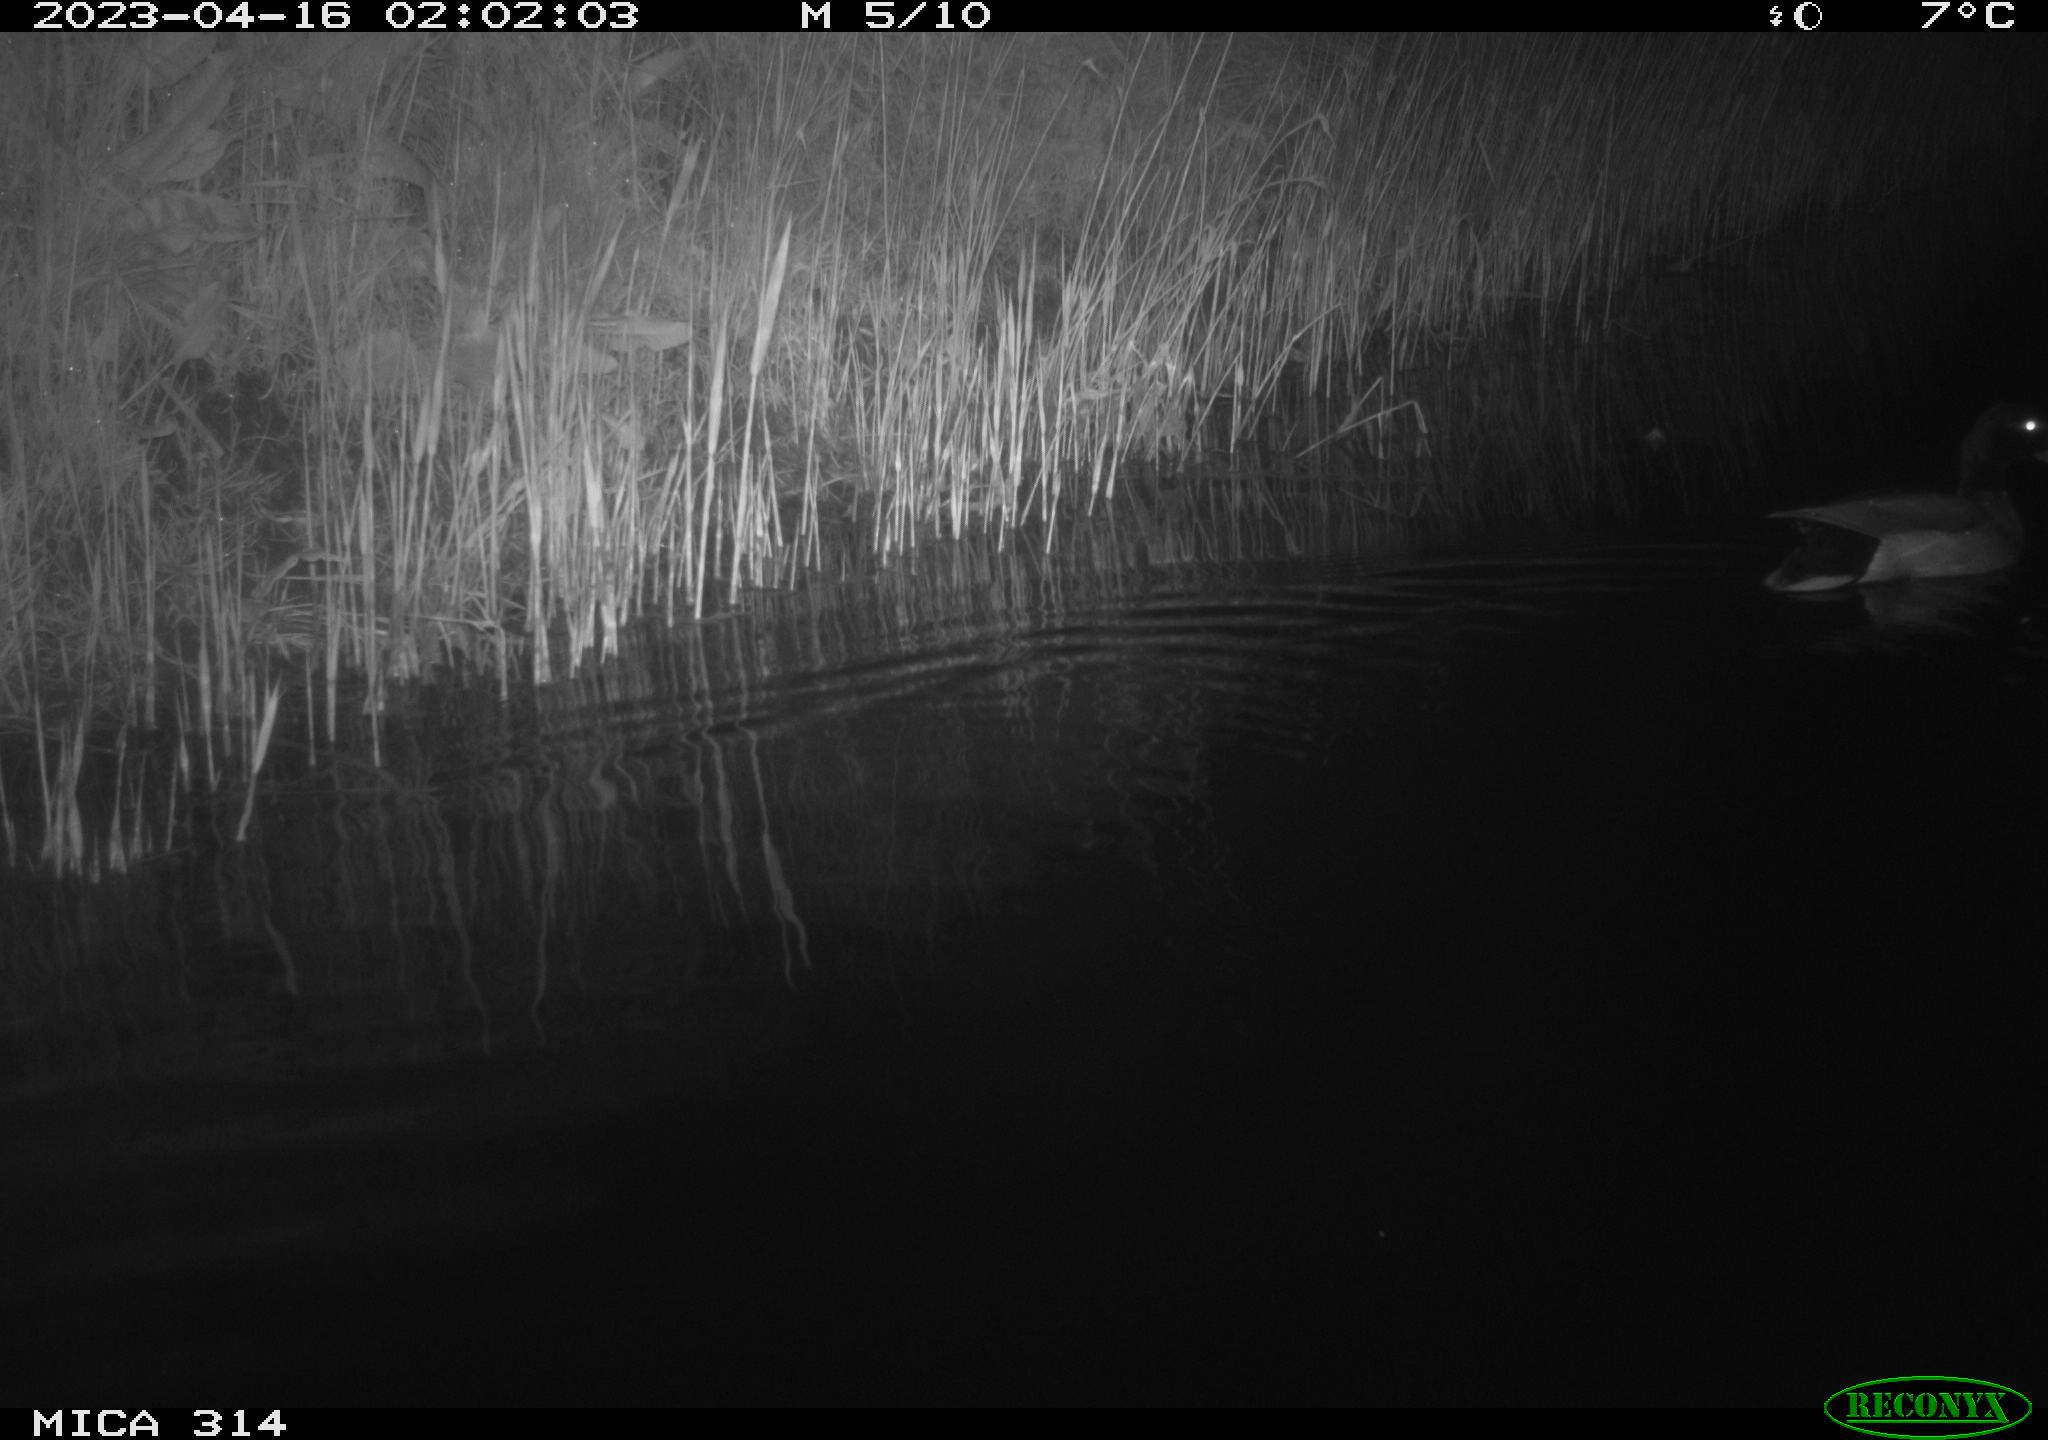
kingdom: Animalia
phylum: Chordata
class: Aves
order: Anseriformes
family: Anatidae
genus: Anas
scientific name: Anas
